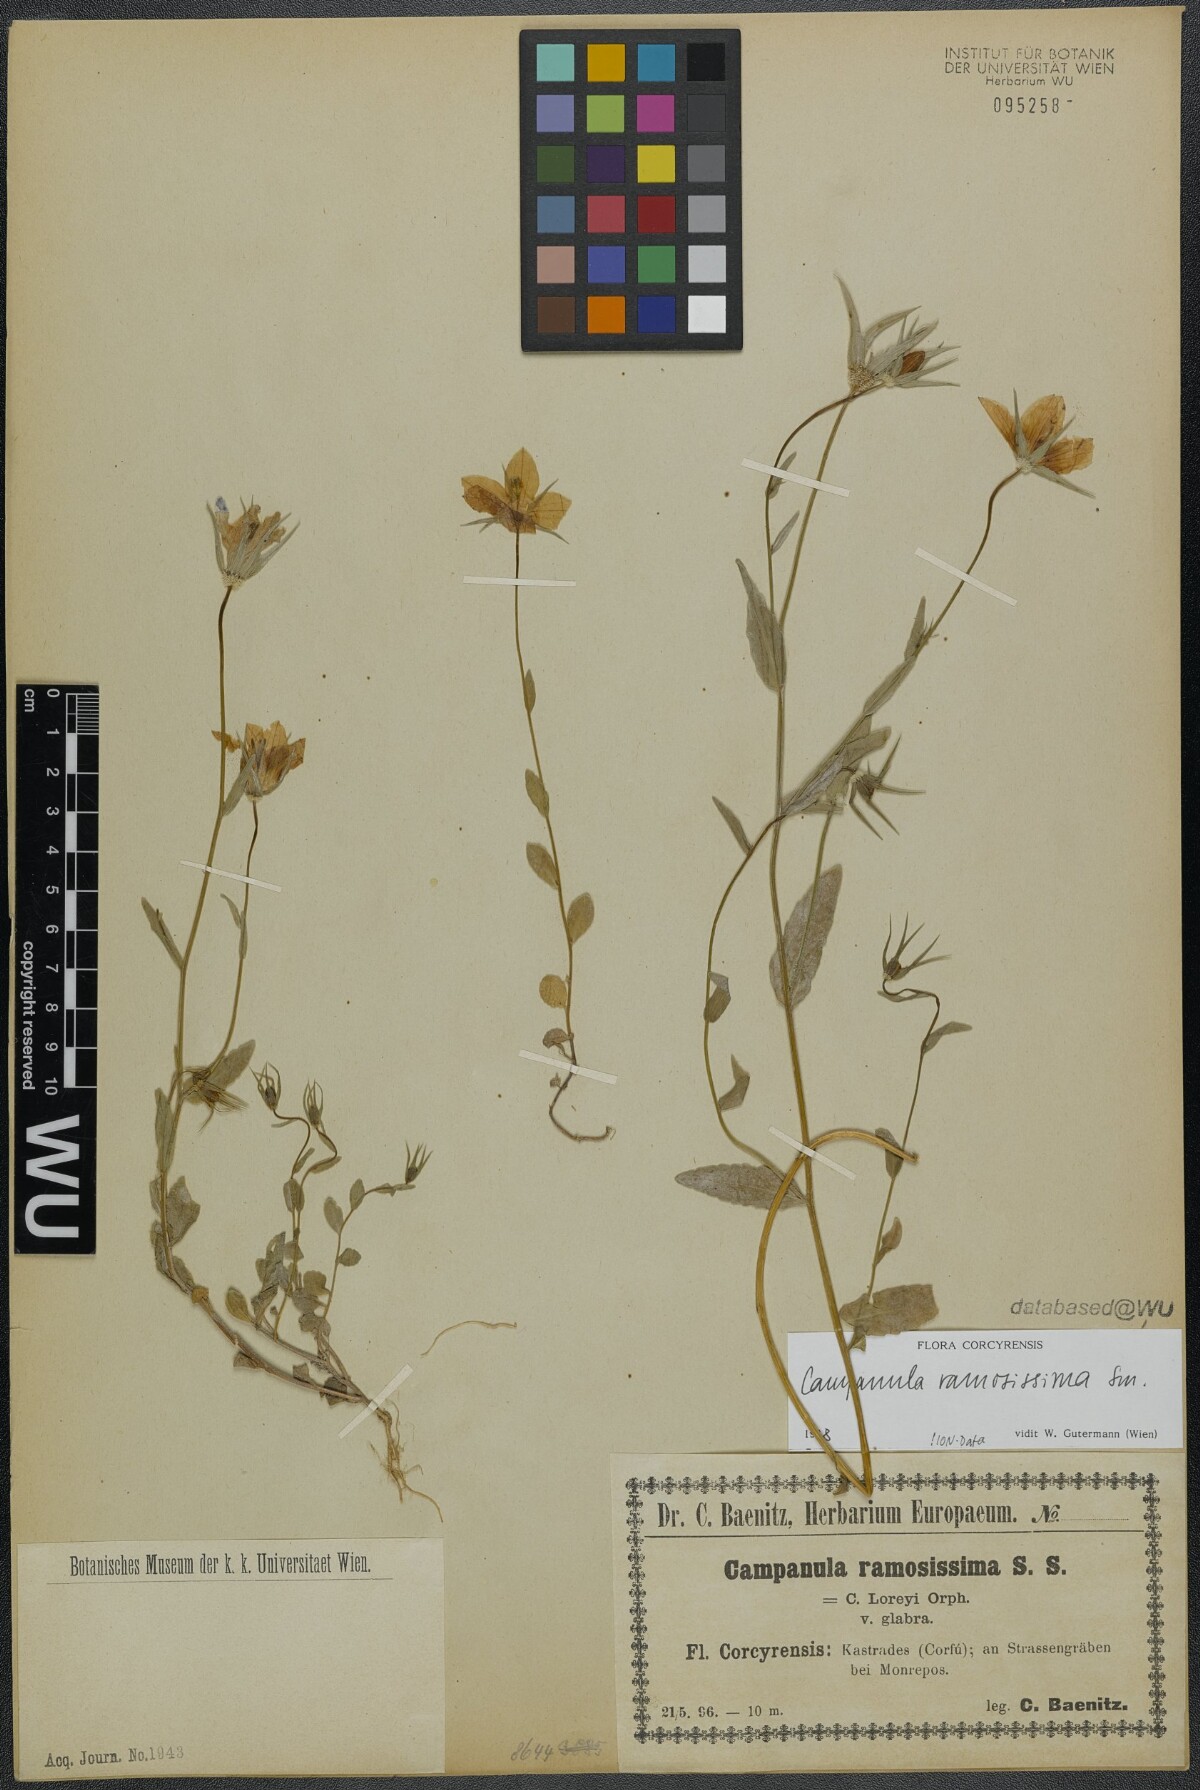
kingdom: Plantae
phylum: Tracheophyta
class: Magnoliopsida
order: Asterales
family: Campanulaceae
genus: Campanula
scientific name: Campanula ramosissima
